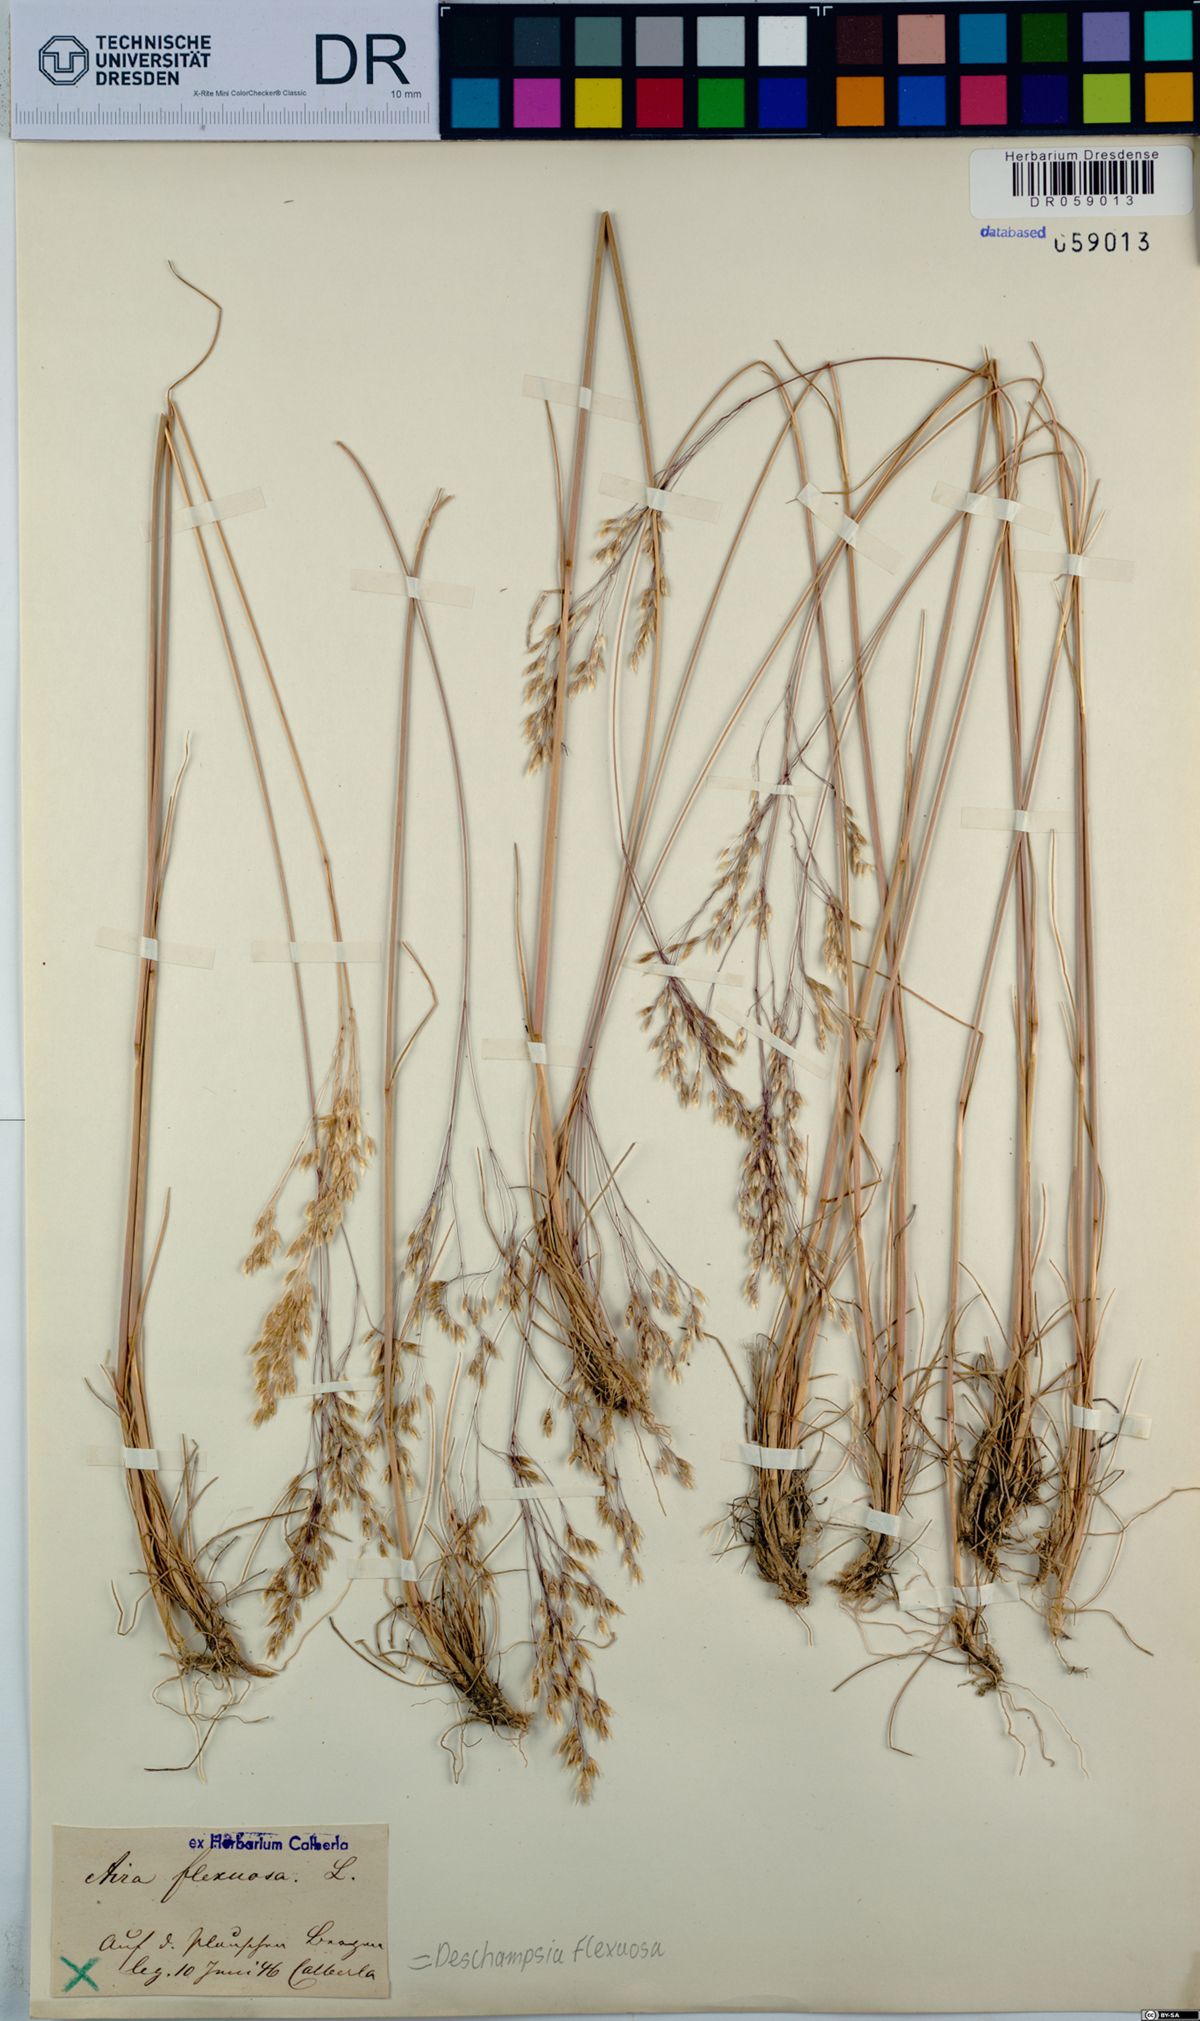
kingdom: Plantae
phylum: Tracheophyta
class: Liliopsida
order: Poales
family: Poaceae
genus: Avenella
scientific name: Avenella flexuosa
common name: Wavy hairgrass
